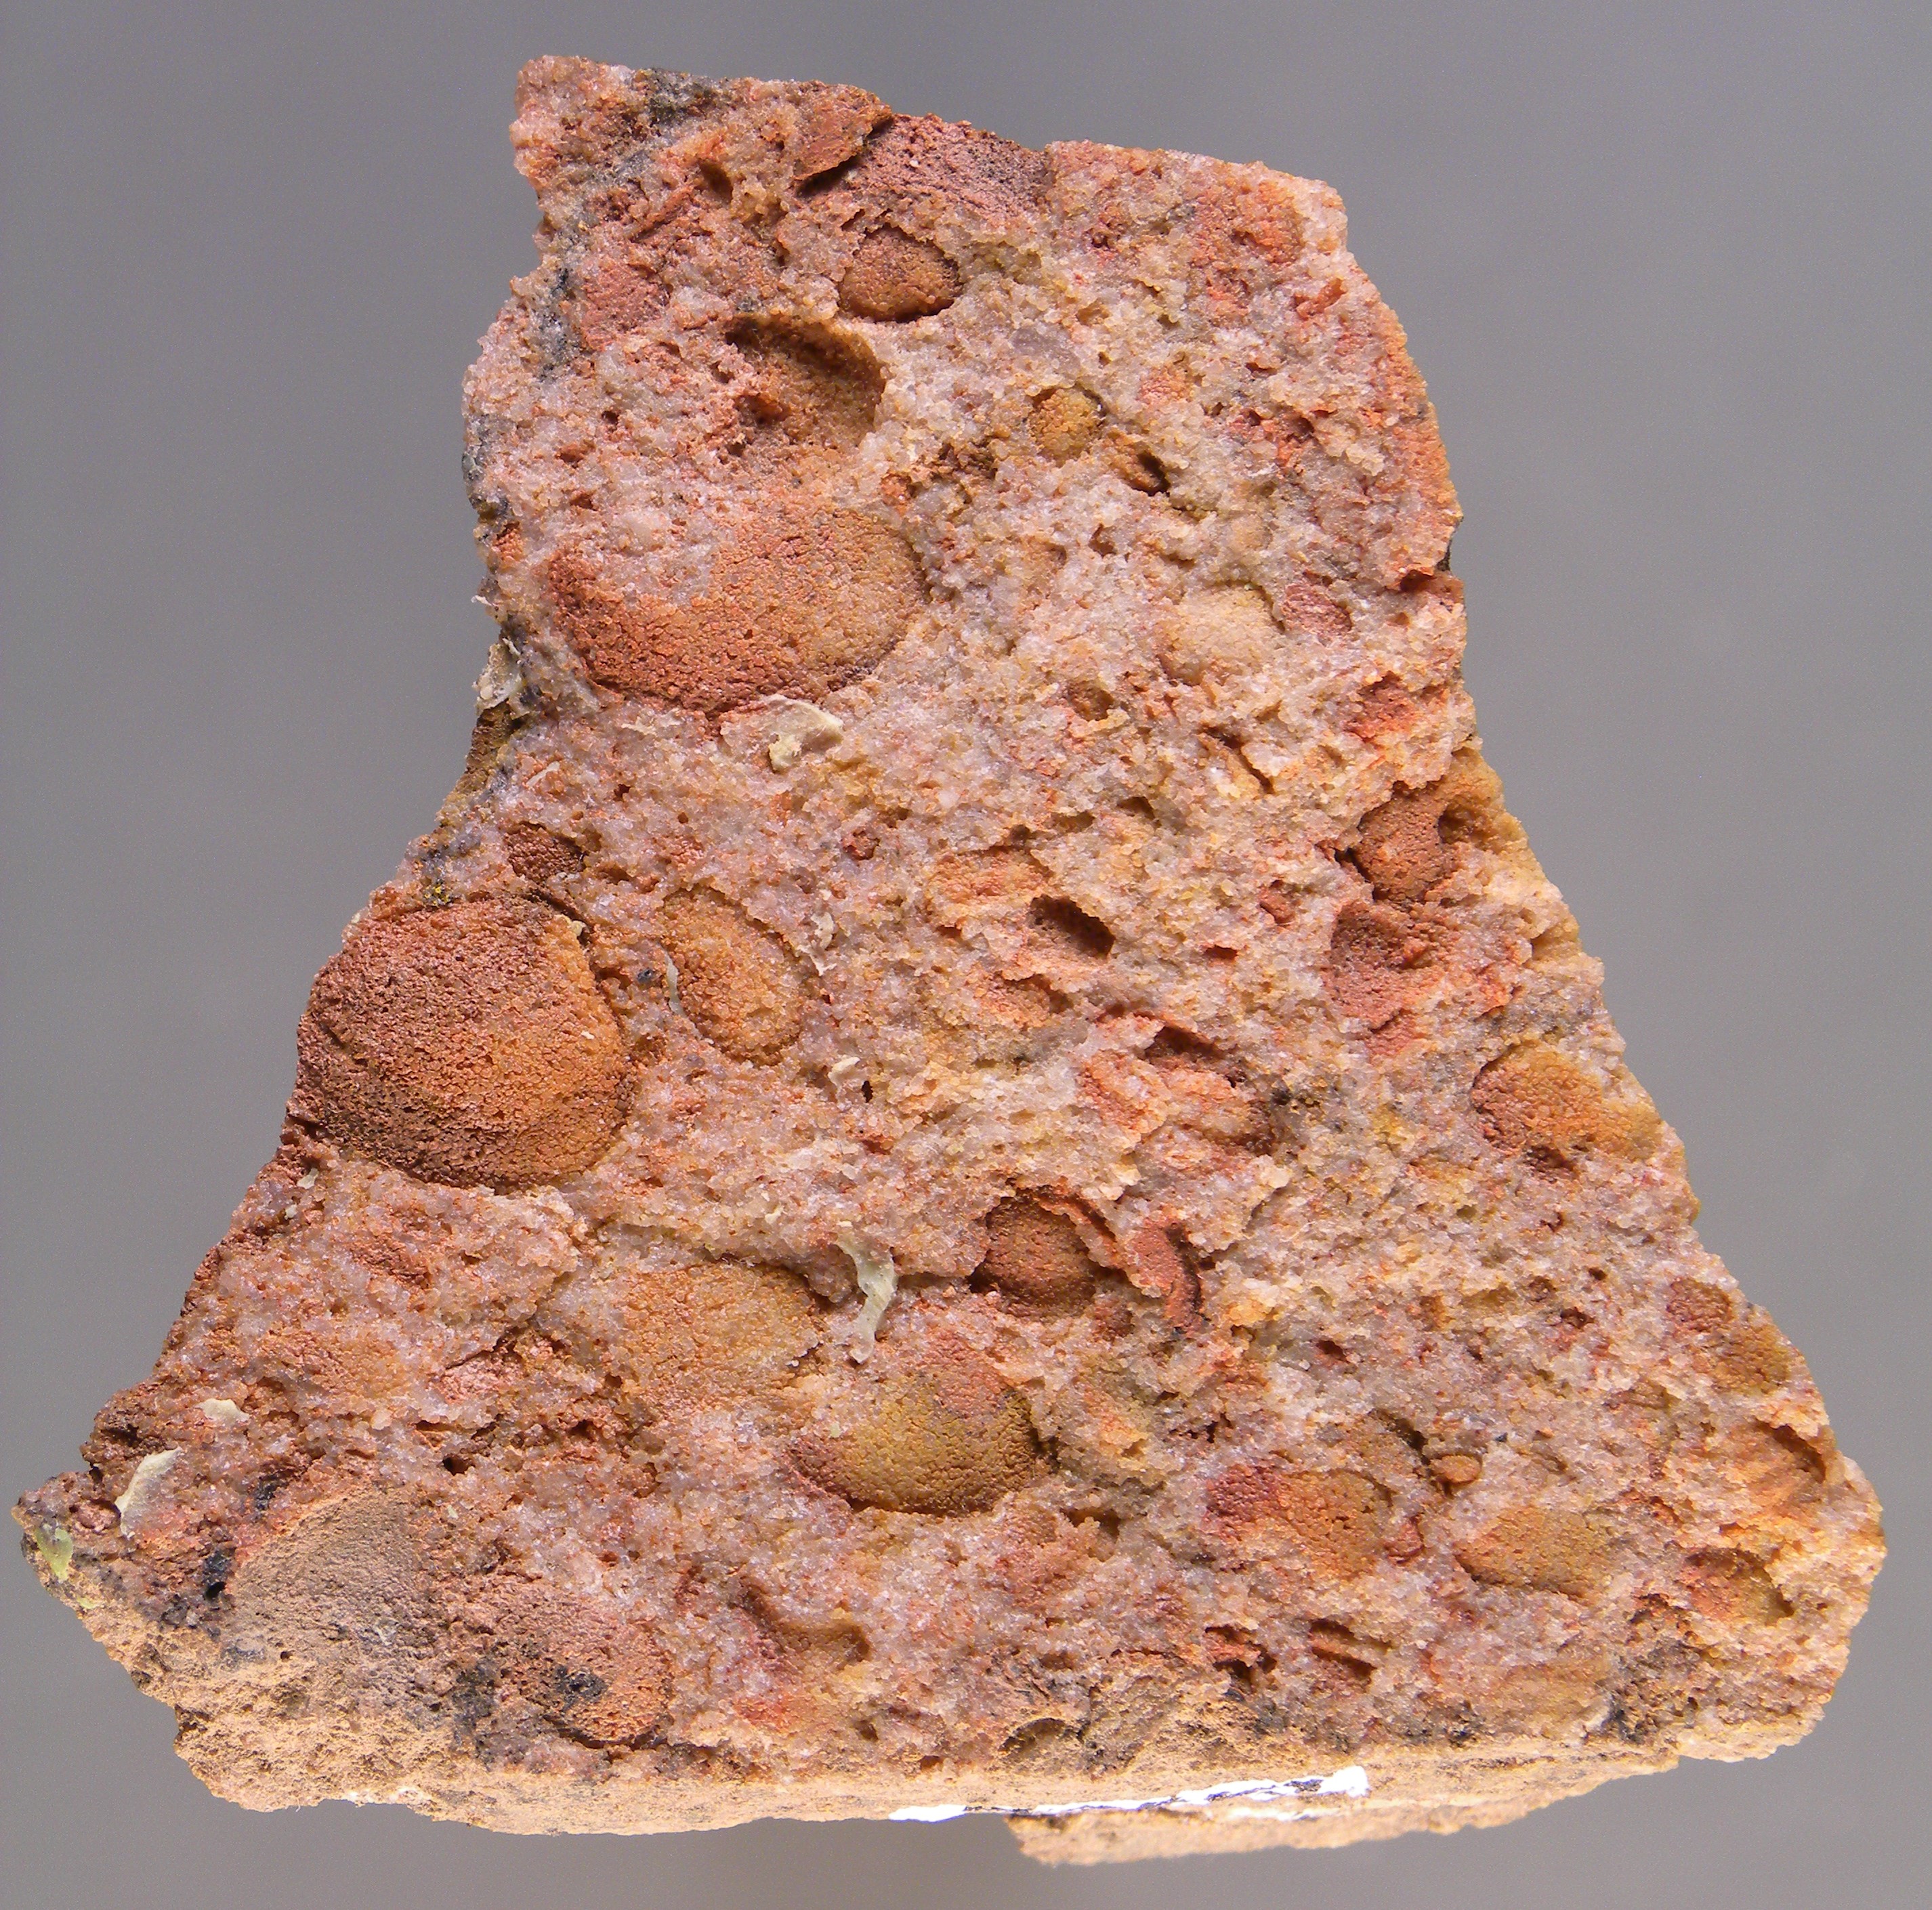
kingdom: Animalia
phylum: Mollusca
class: Bivalvia
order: Carditida
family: Crassatellidae
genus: Cypricardella
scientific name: Cypricardella
